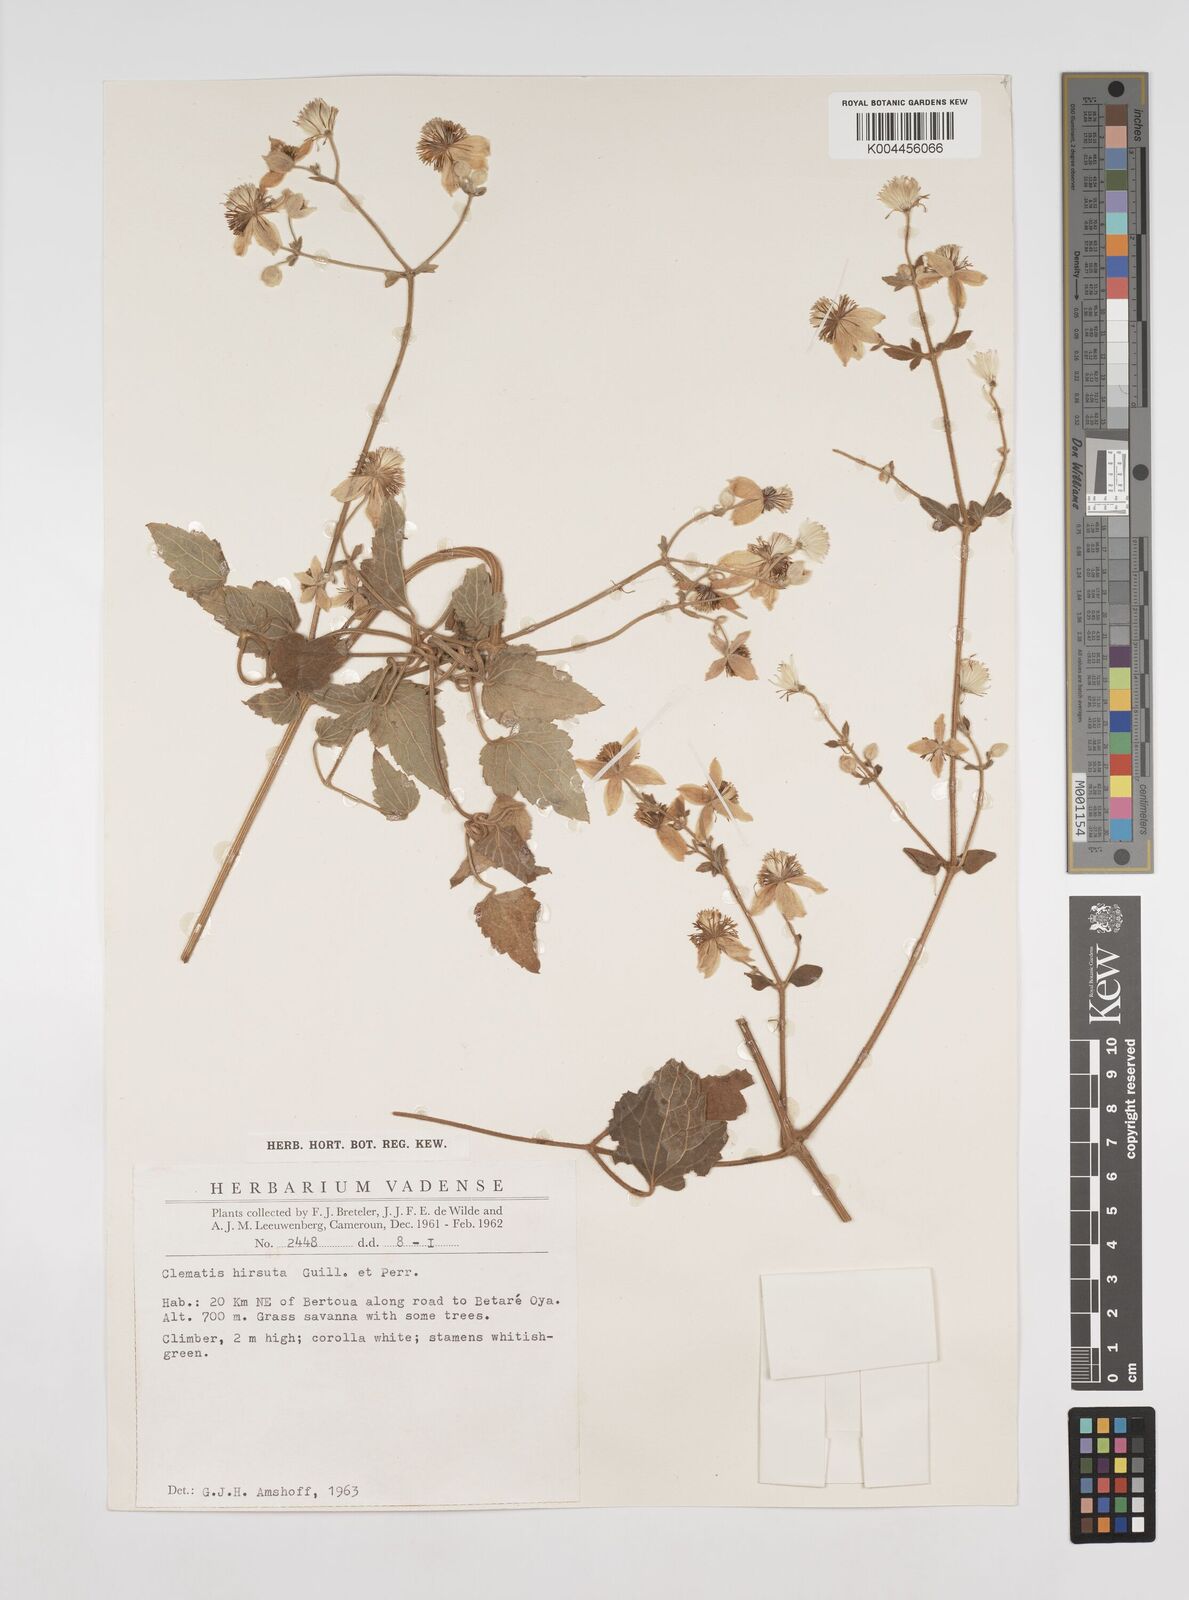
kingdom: Plantae
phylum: Tracheophyta
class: Magnoliopsida
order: Ranunculales
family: Ranunculaceae
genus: Clematis
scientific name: Clematis hirsuta
